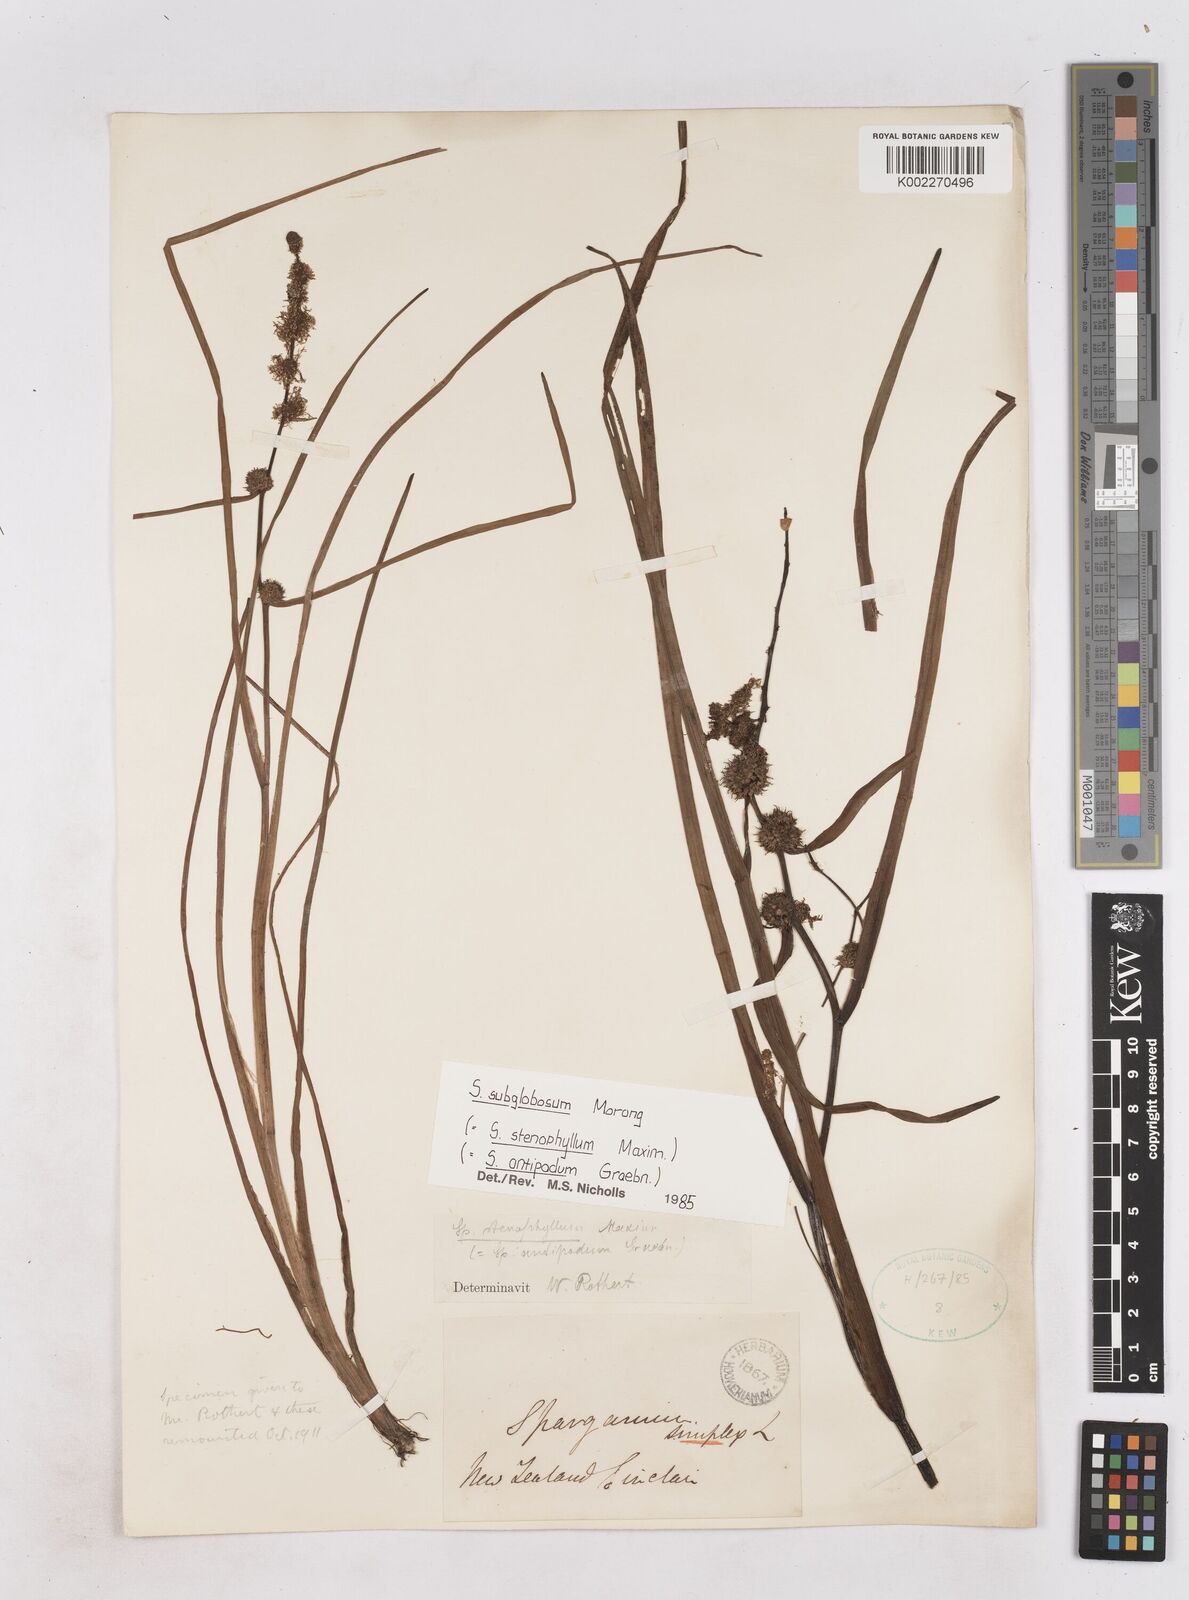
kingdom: Plantae
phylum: Tracheophyta
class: Liliopsida
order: Poales
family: Typhaceae
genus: Sparganium
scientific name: Sparganium subglobosum
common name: Burr­-reed
